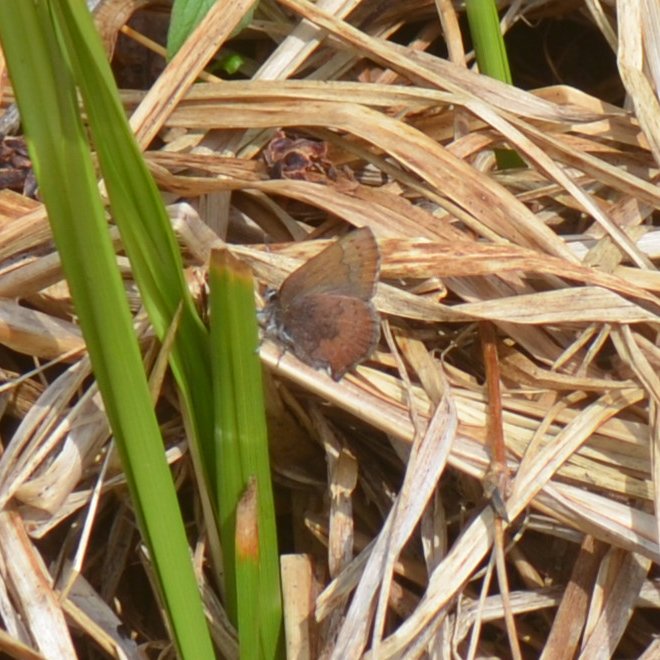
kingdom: Animalia
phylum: Arthropoda
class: Insecta
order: Lepidoptera
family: Lycaenidae
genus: Incisalia
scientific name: Incisalia irioides
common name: Brown Elfin
